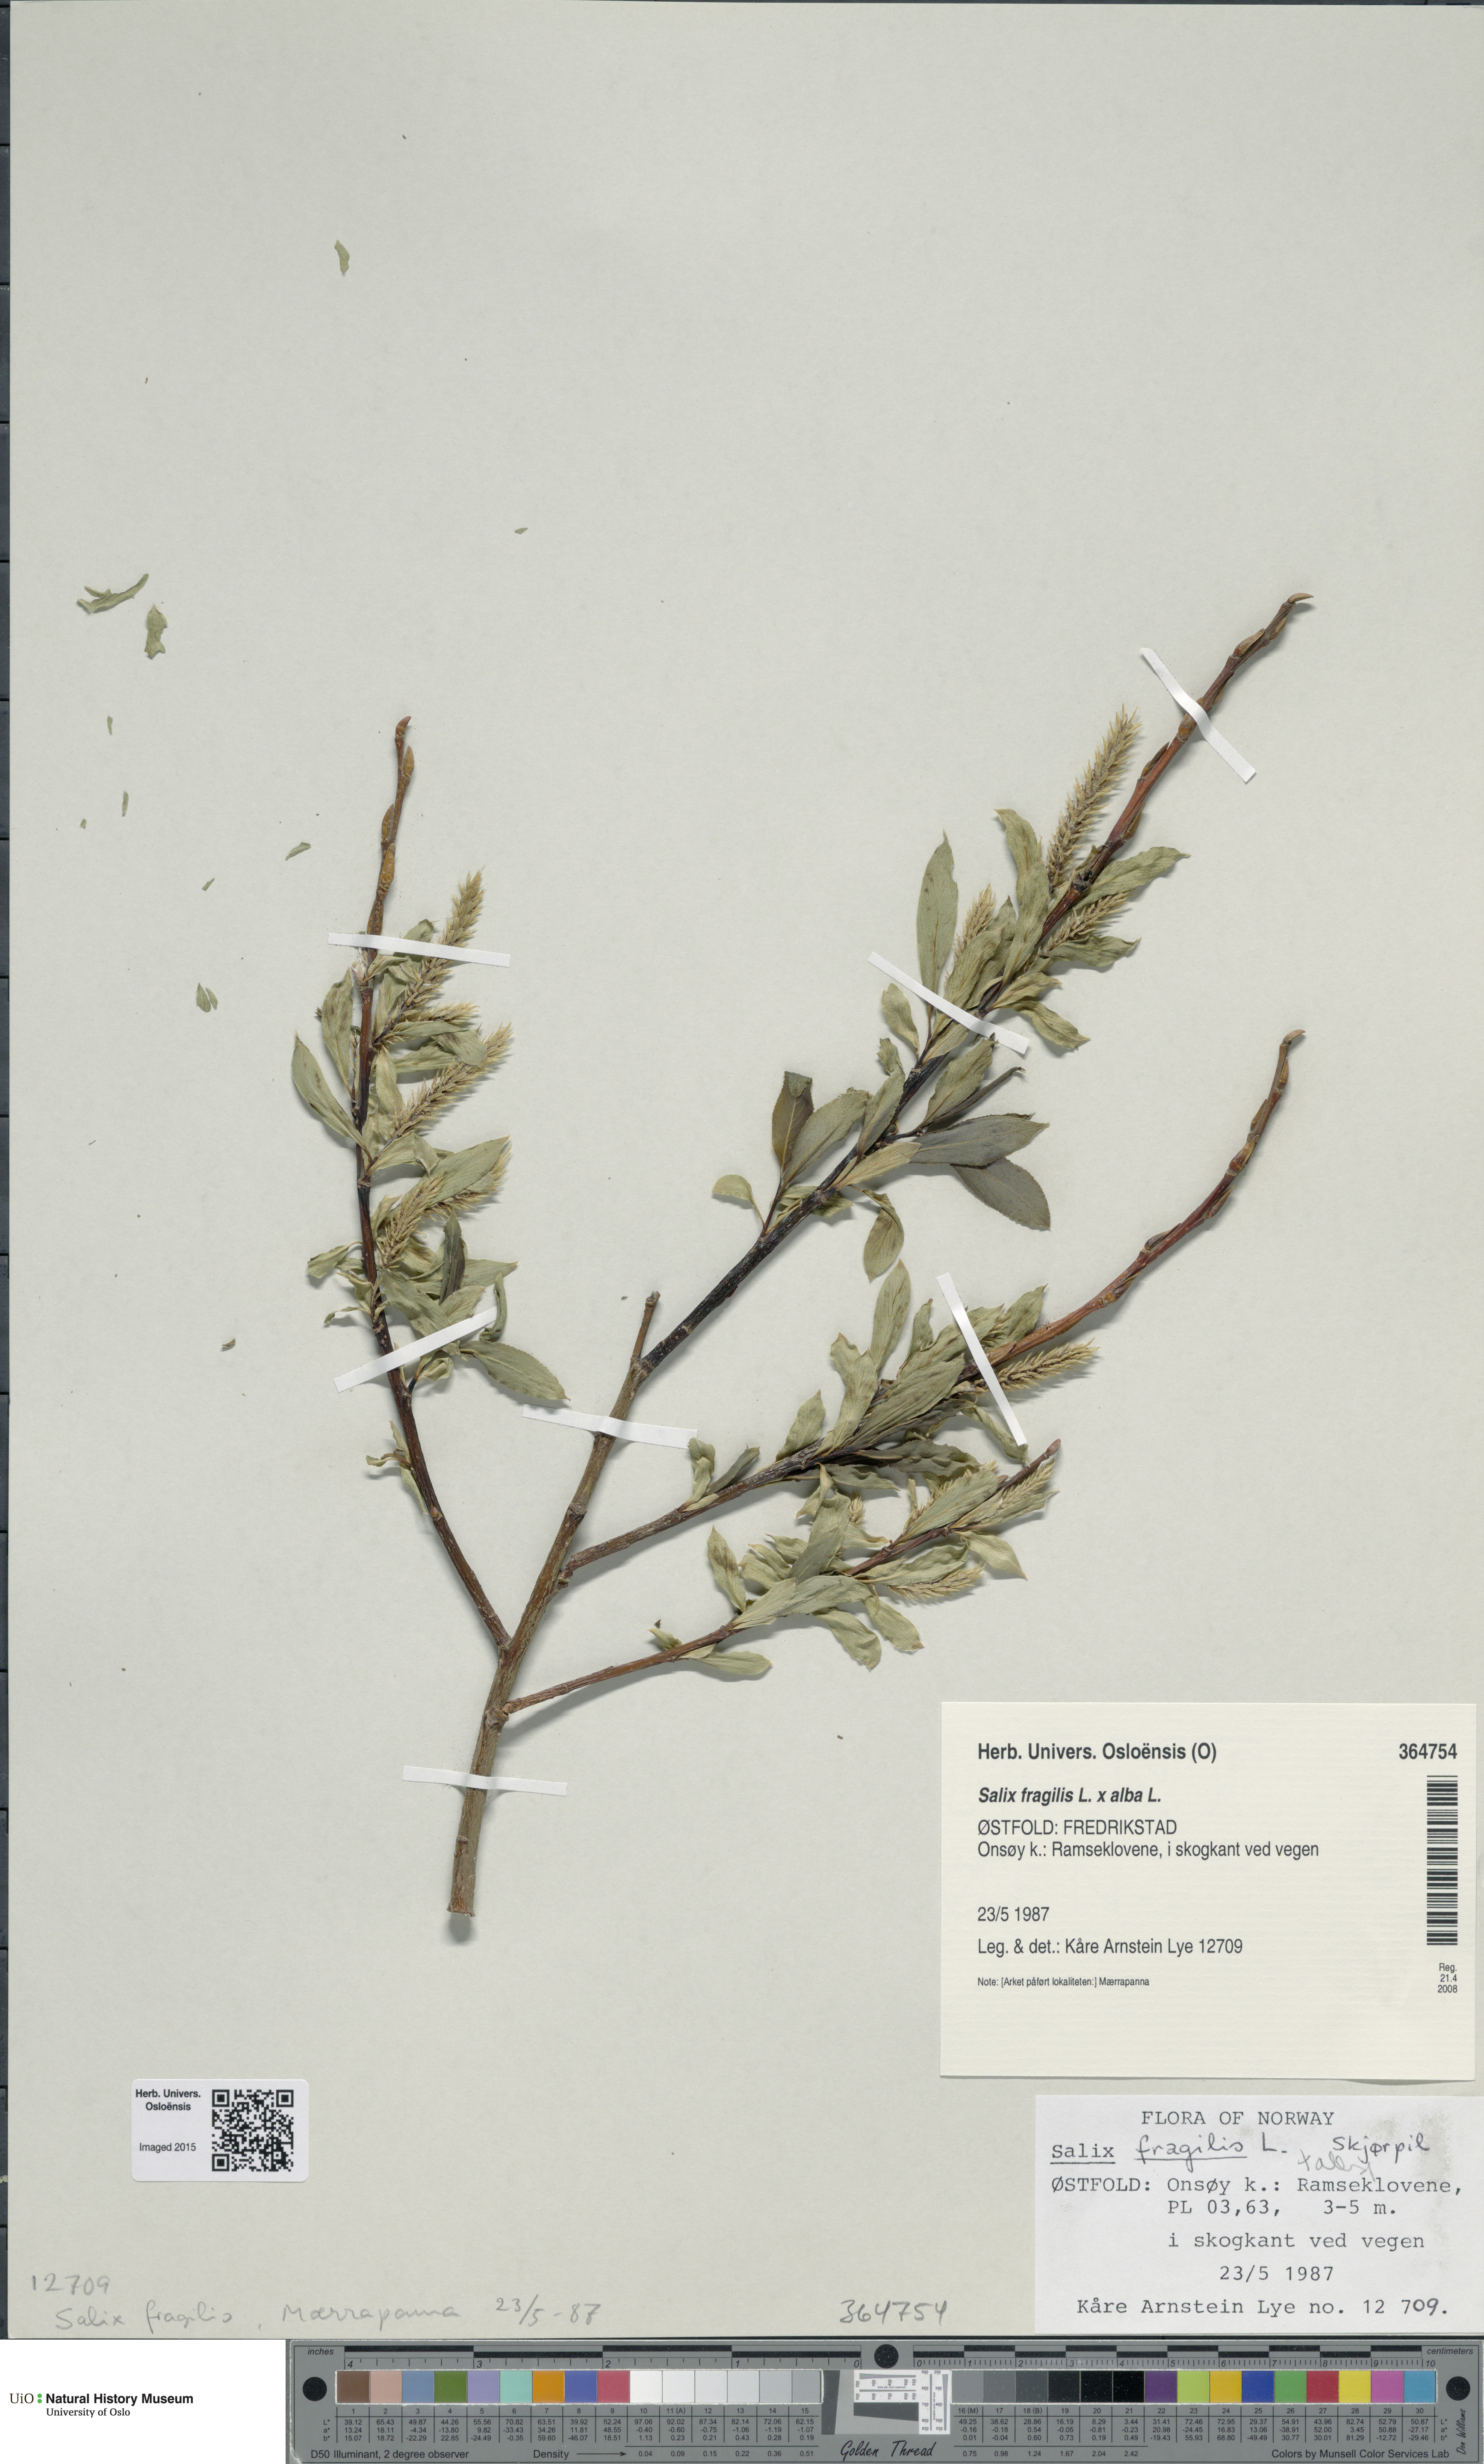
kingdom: Plantae
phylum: Tracheophyta
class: Magnoliopsida
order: Malpighiales
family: Salicaceae
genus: Salix
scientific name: Salix
